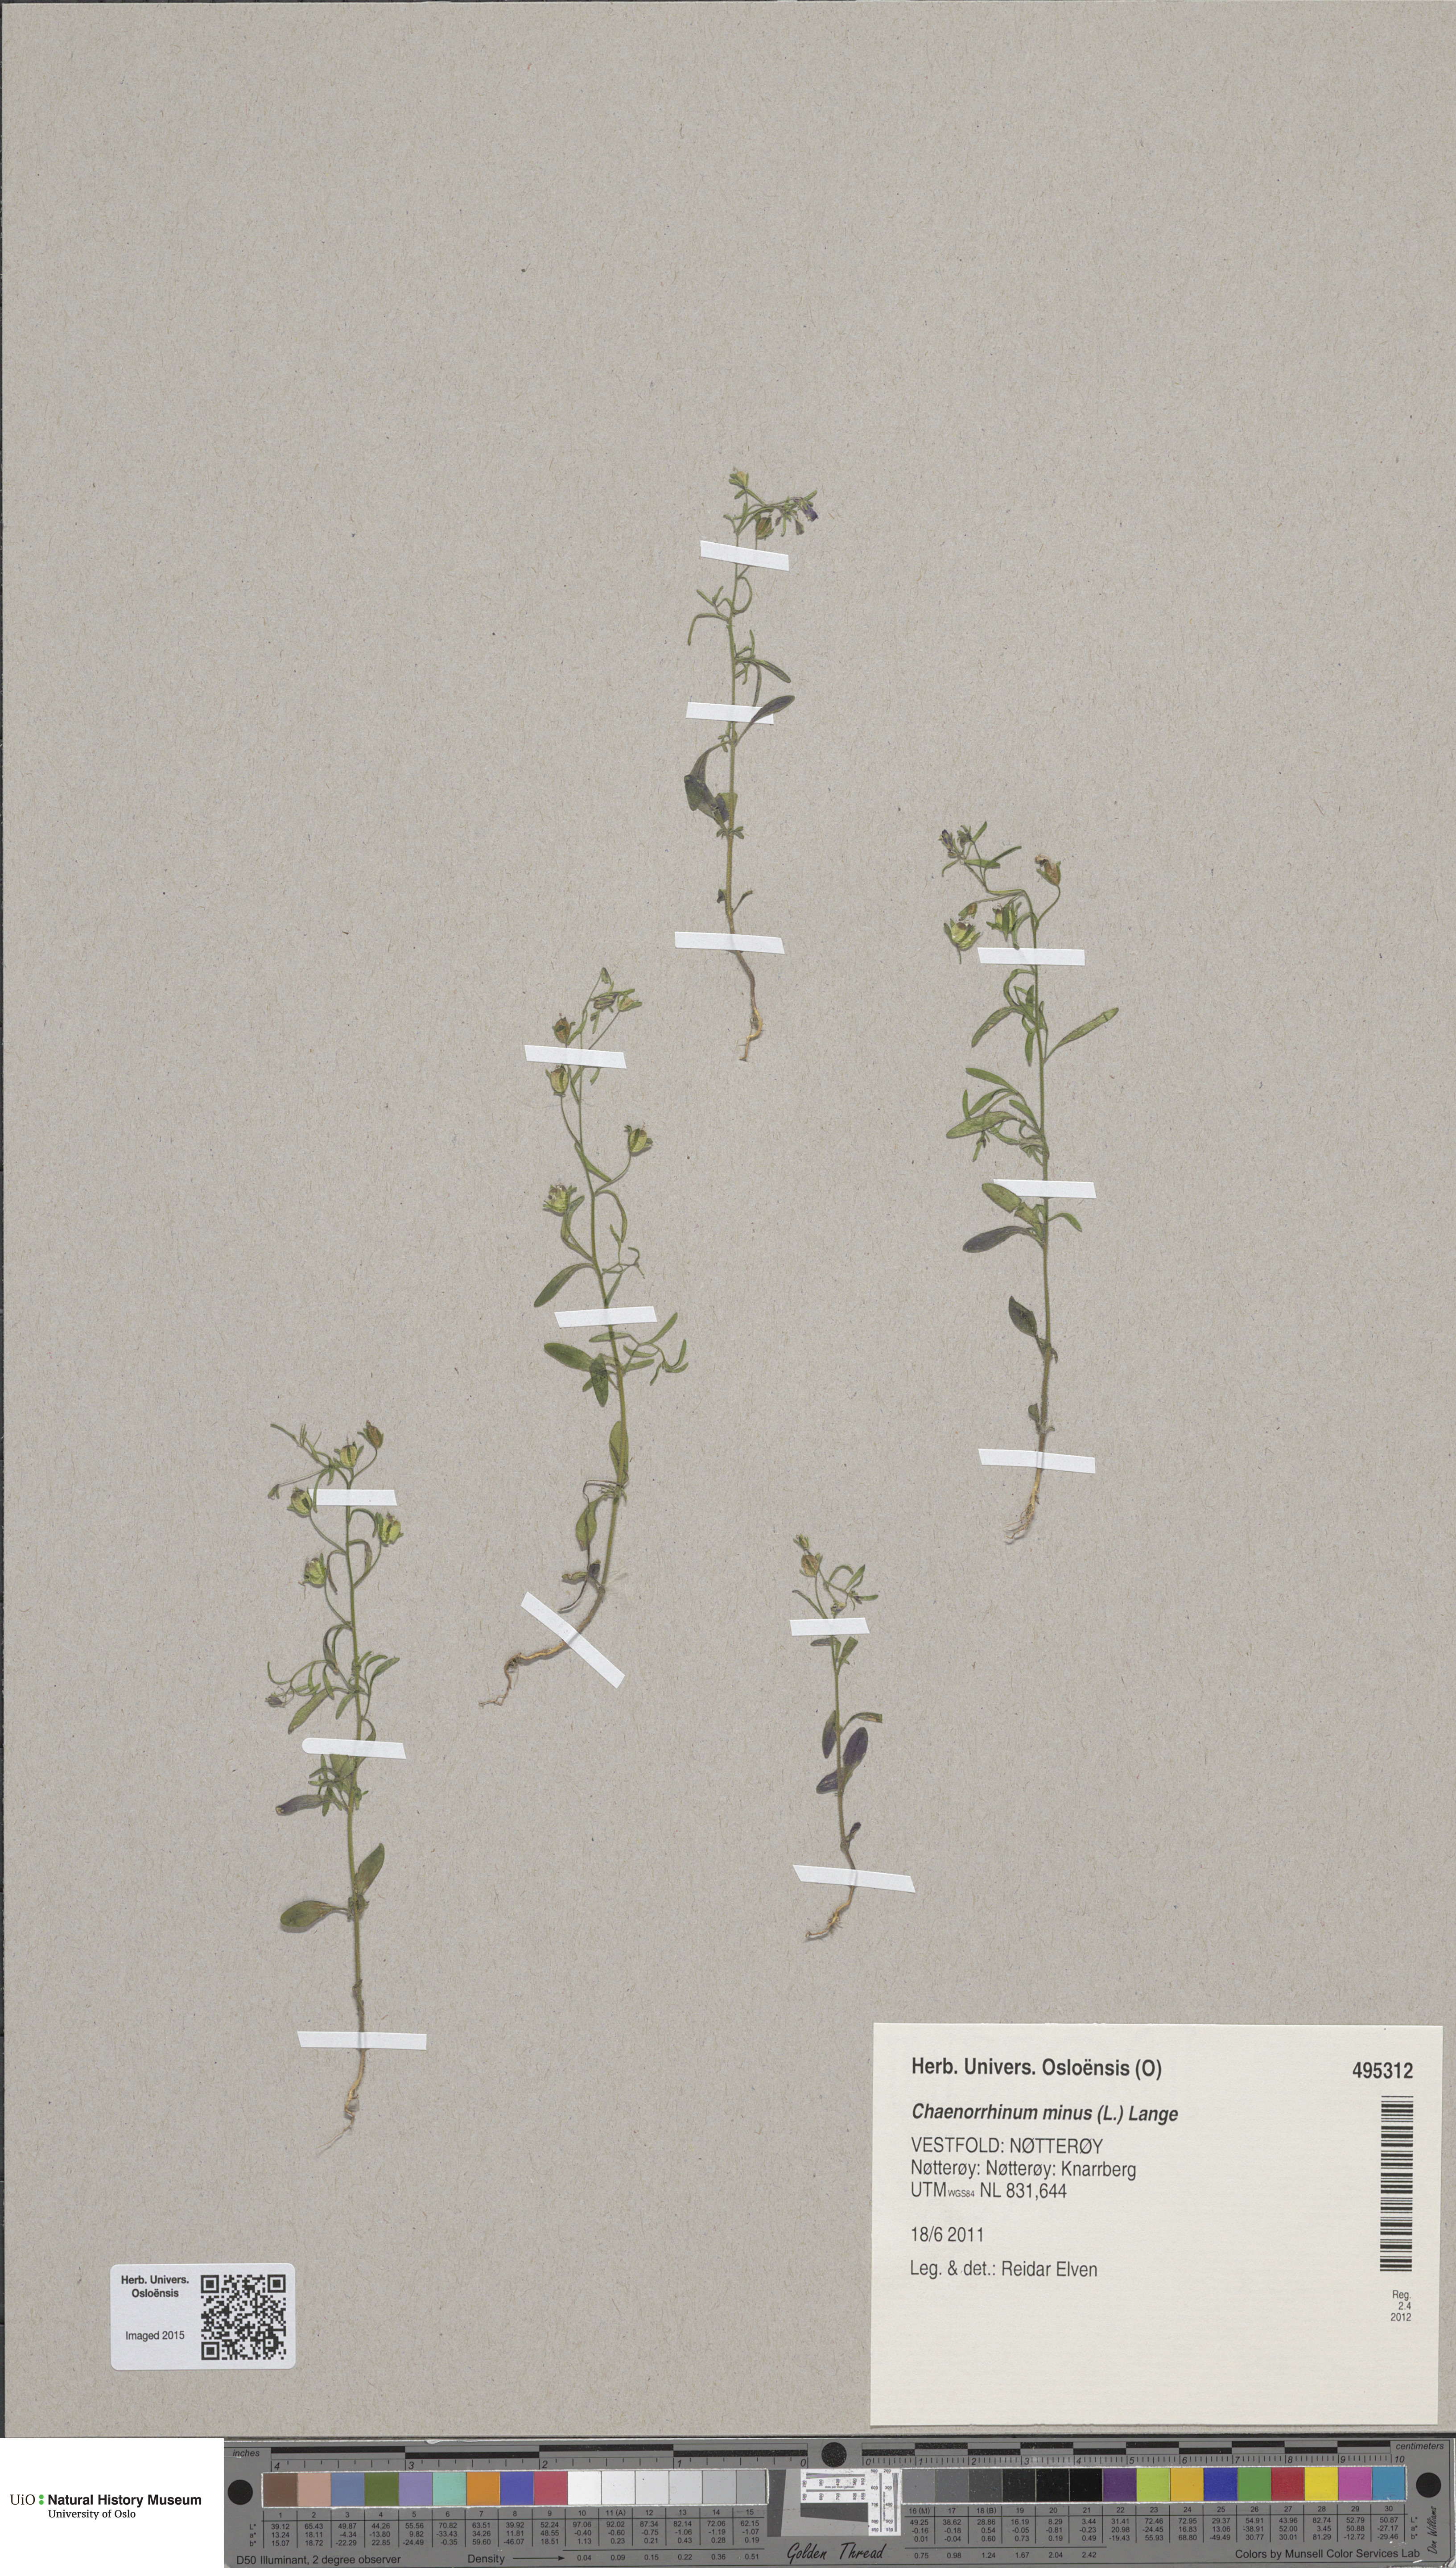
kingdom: Plantae
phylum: Tracheophyta
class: Magnoliopsida
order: Lamiales
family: Plantaginaceae
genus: Chaenorhinum
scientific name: Chaenorhinum minus
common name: Dwarf snapdragon
